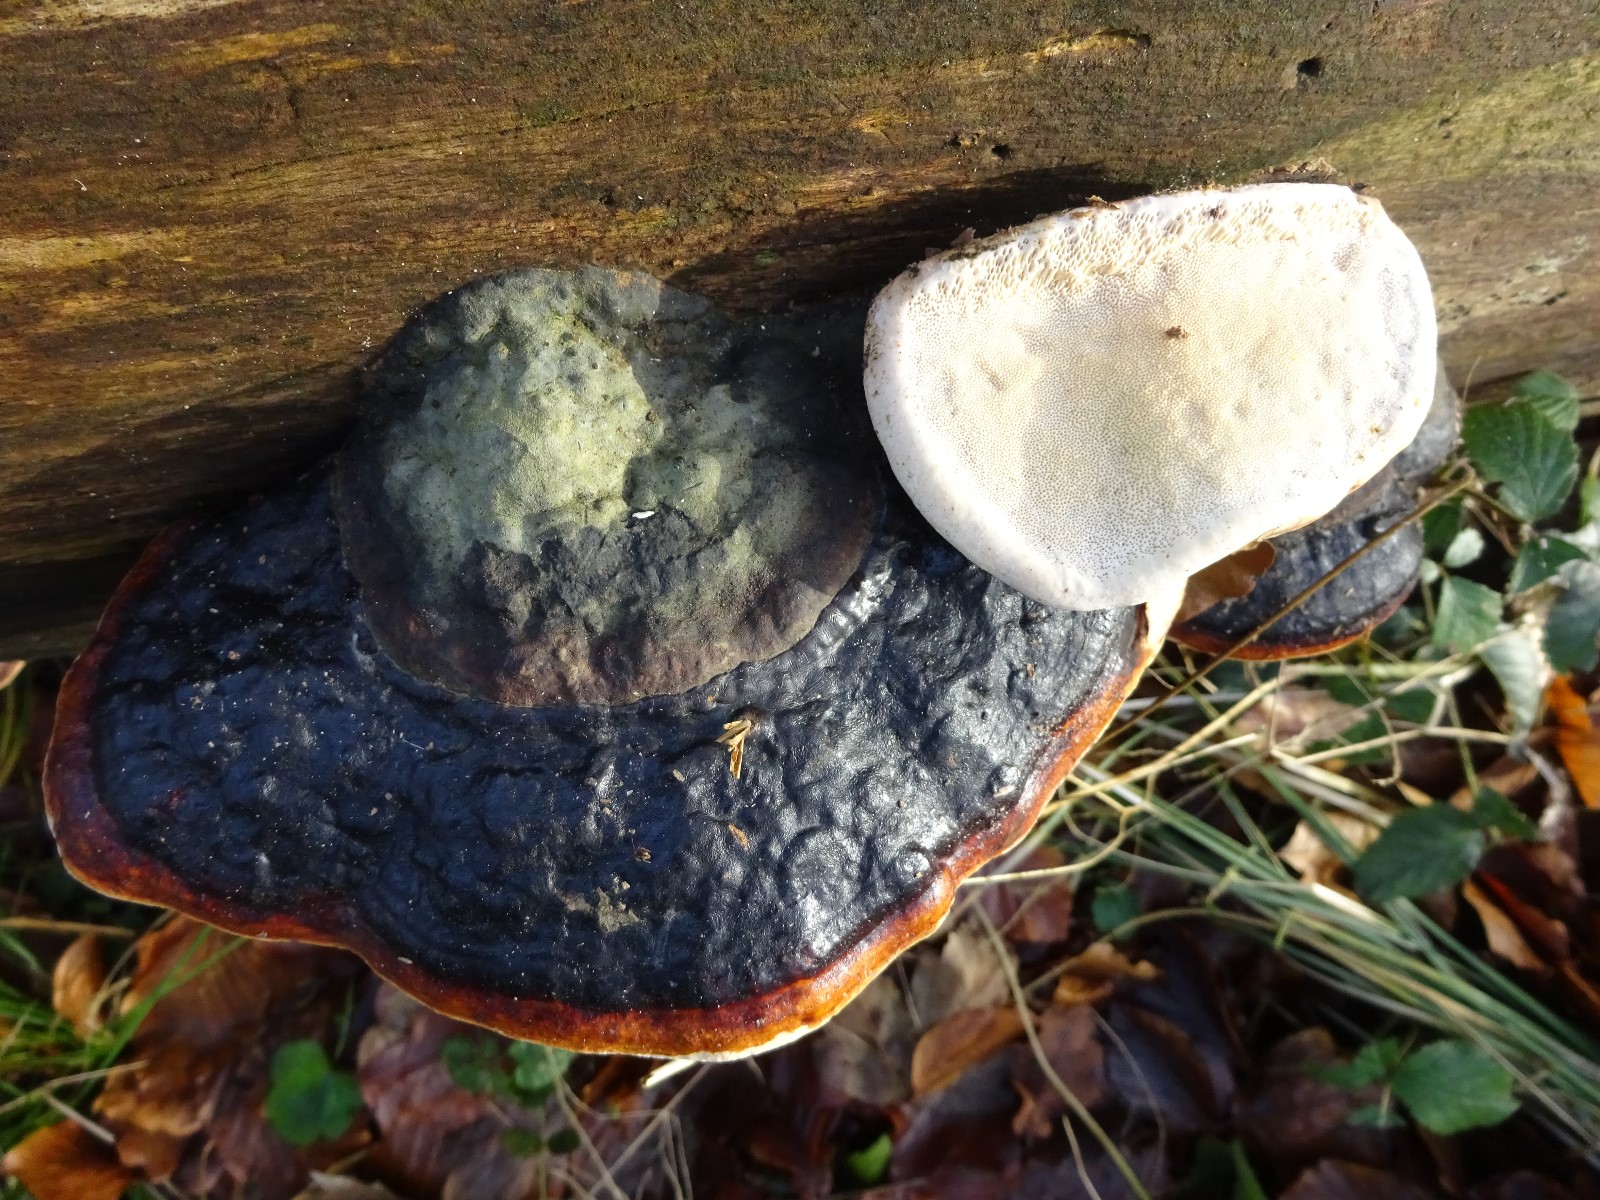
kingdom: Fungi
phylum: Basidiomycota
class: Agaricomycetes
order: Polyporales
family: Fomitopsidaceae
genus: Fomitopsis
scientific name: Fomitopsis pinicola
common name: randbæltet hovporesvamp
